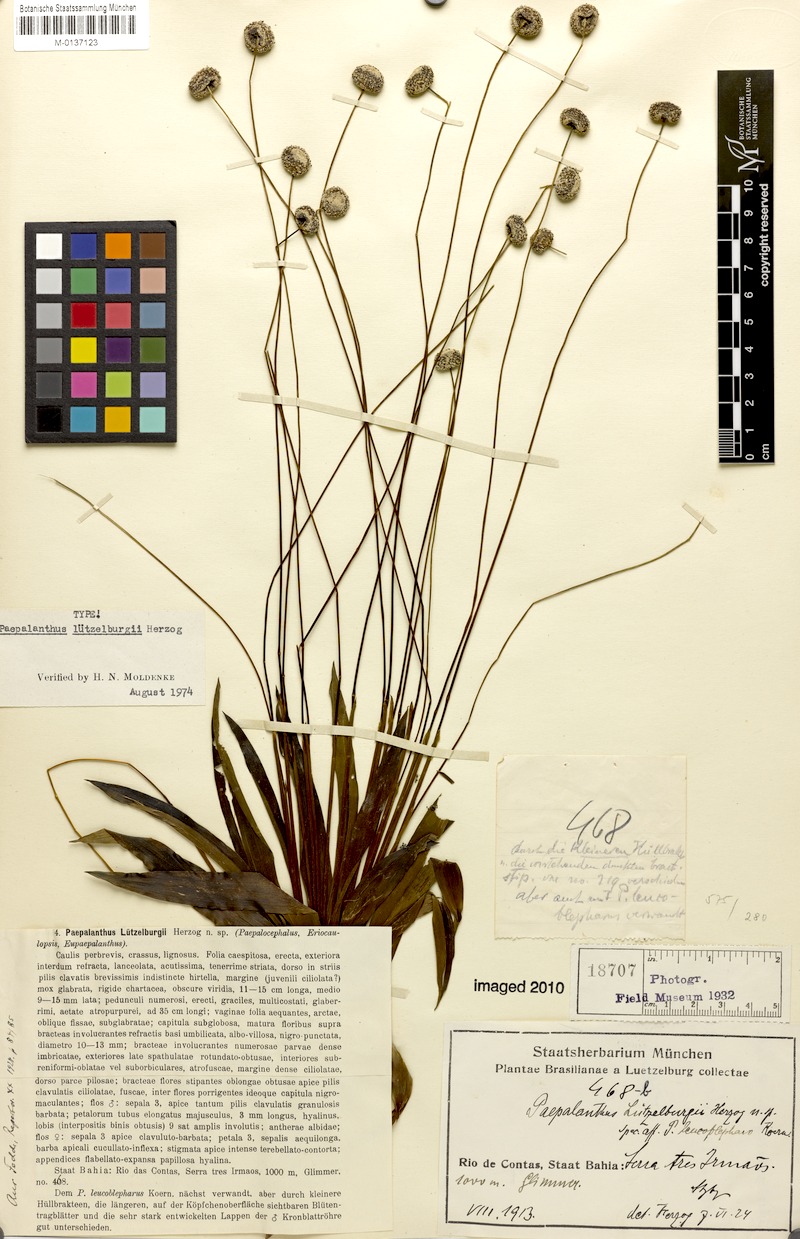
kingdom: Plantae
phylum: Tracheophyta
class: Liliopsida
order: Poales
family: Eriocaulaceae
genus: Paepalanthus
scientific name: Paepalanthus luetzelburgii
